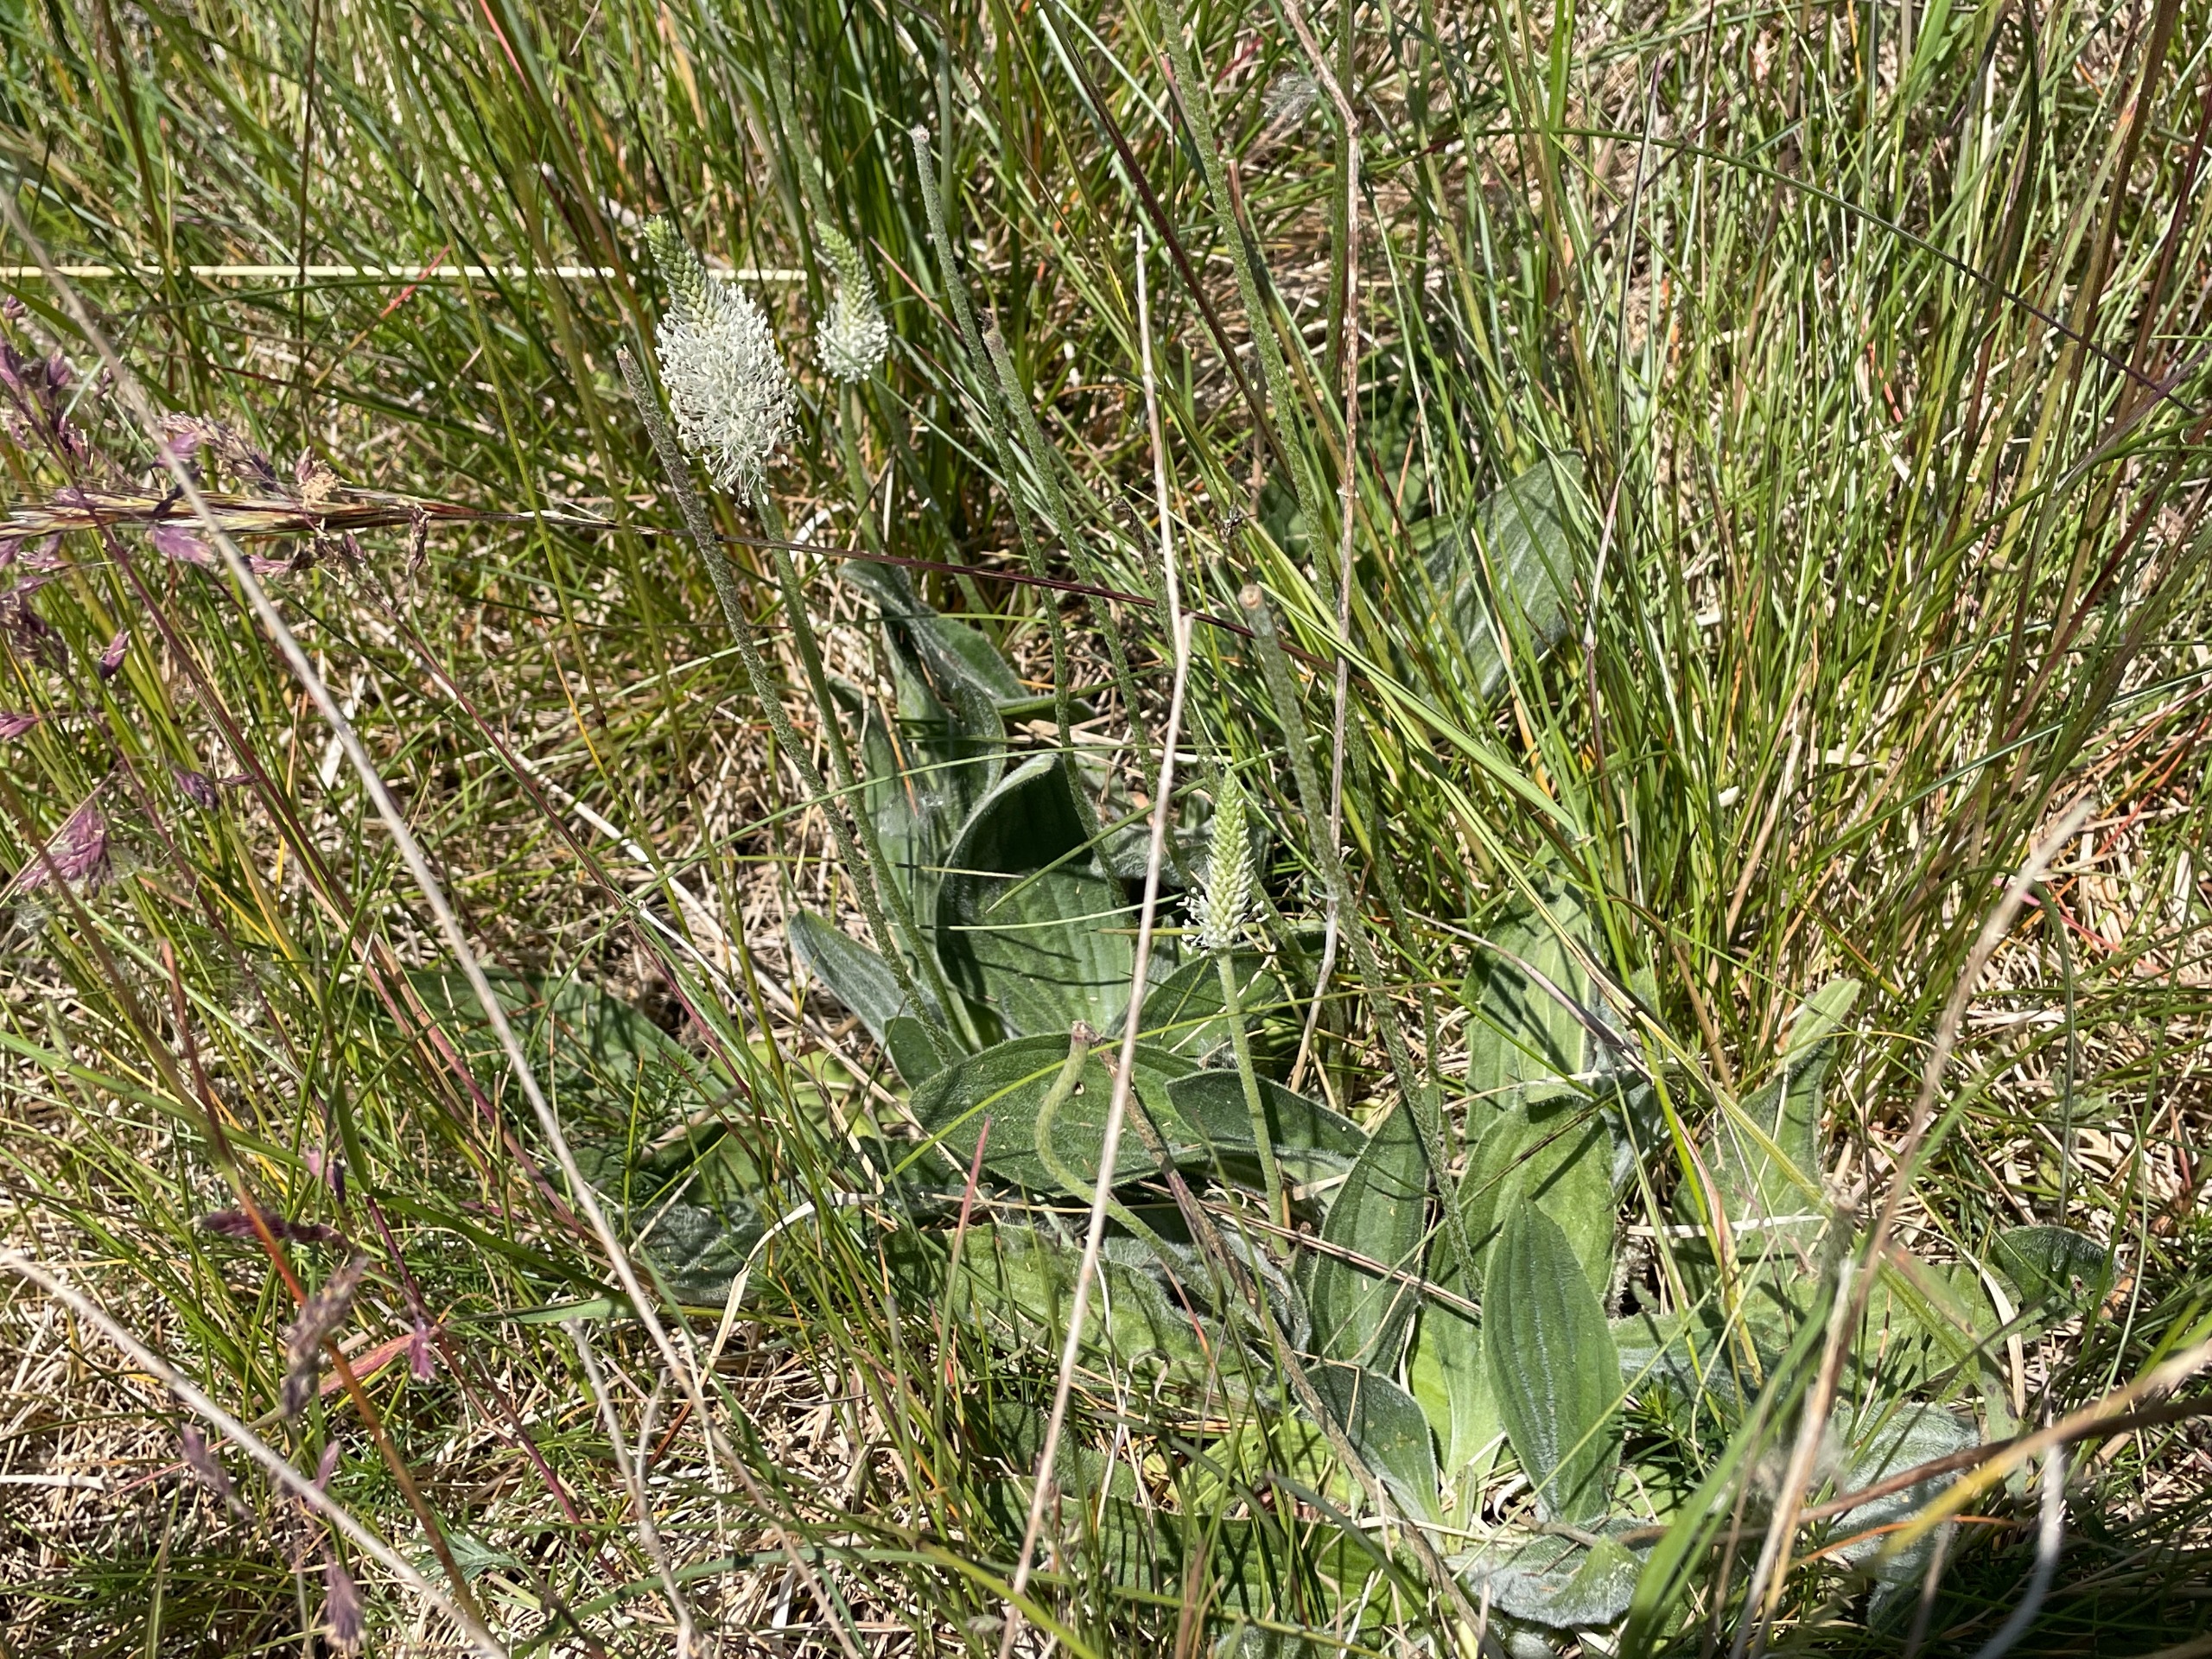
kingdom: Plantae
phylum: Tracheophyta
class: Magnoliopsida
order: Lamiales
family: Plantaginaceae
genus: Plantago
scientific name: Plantago media
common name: Dunet vejbred
